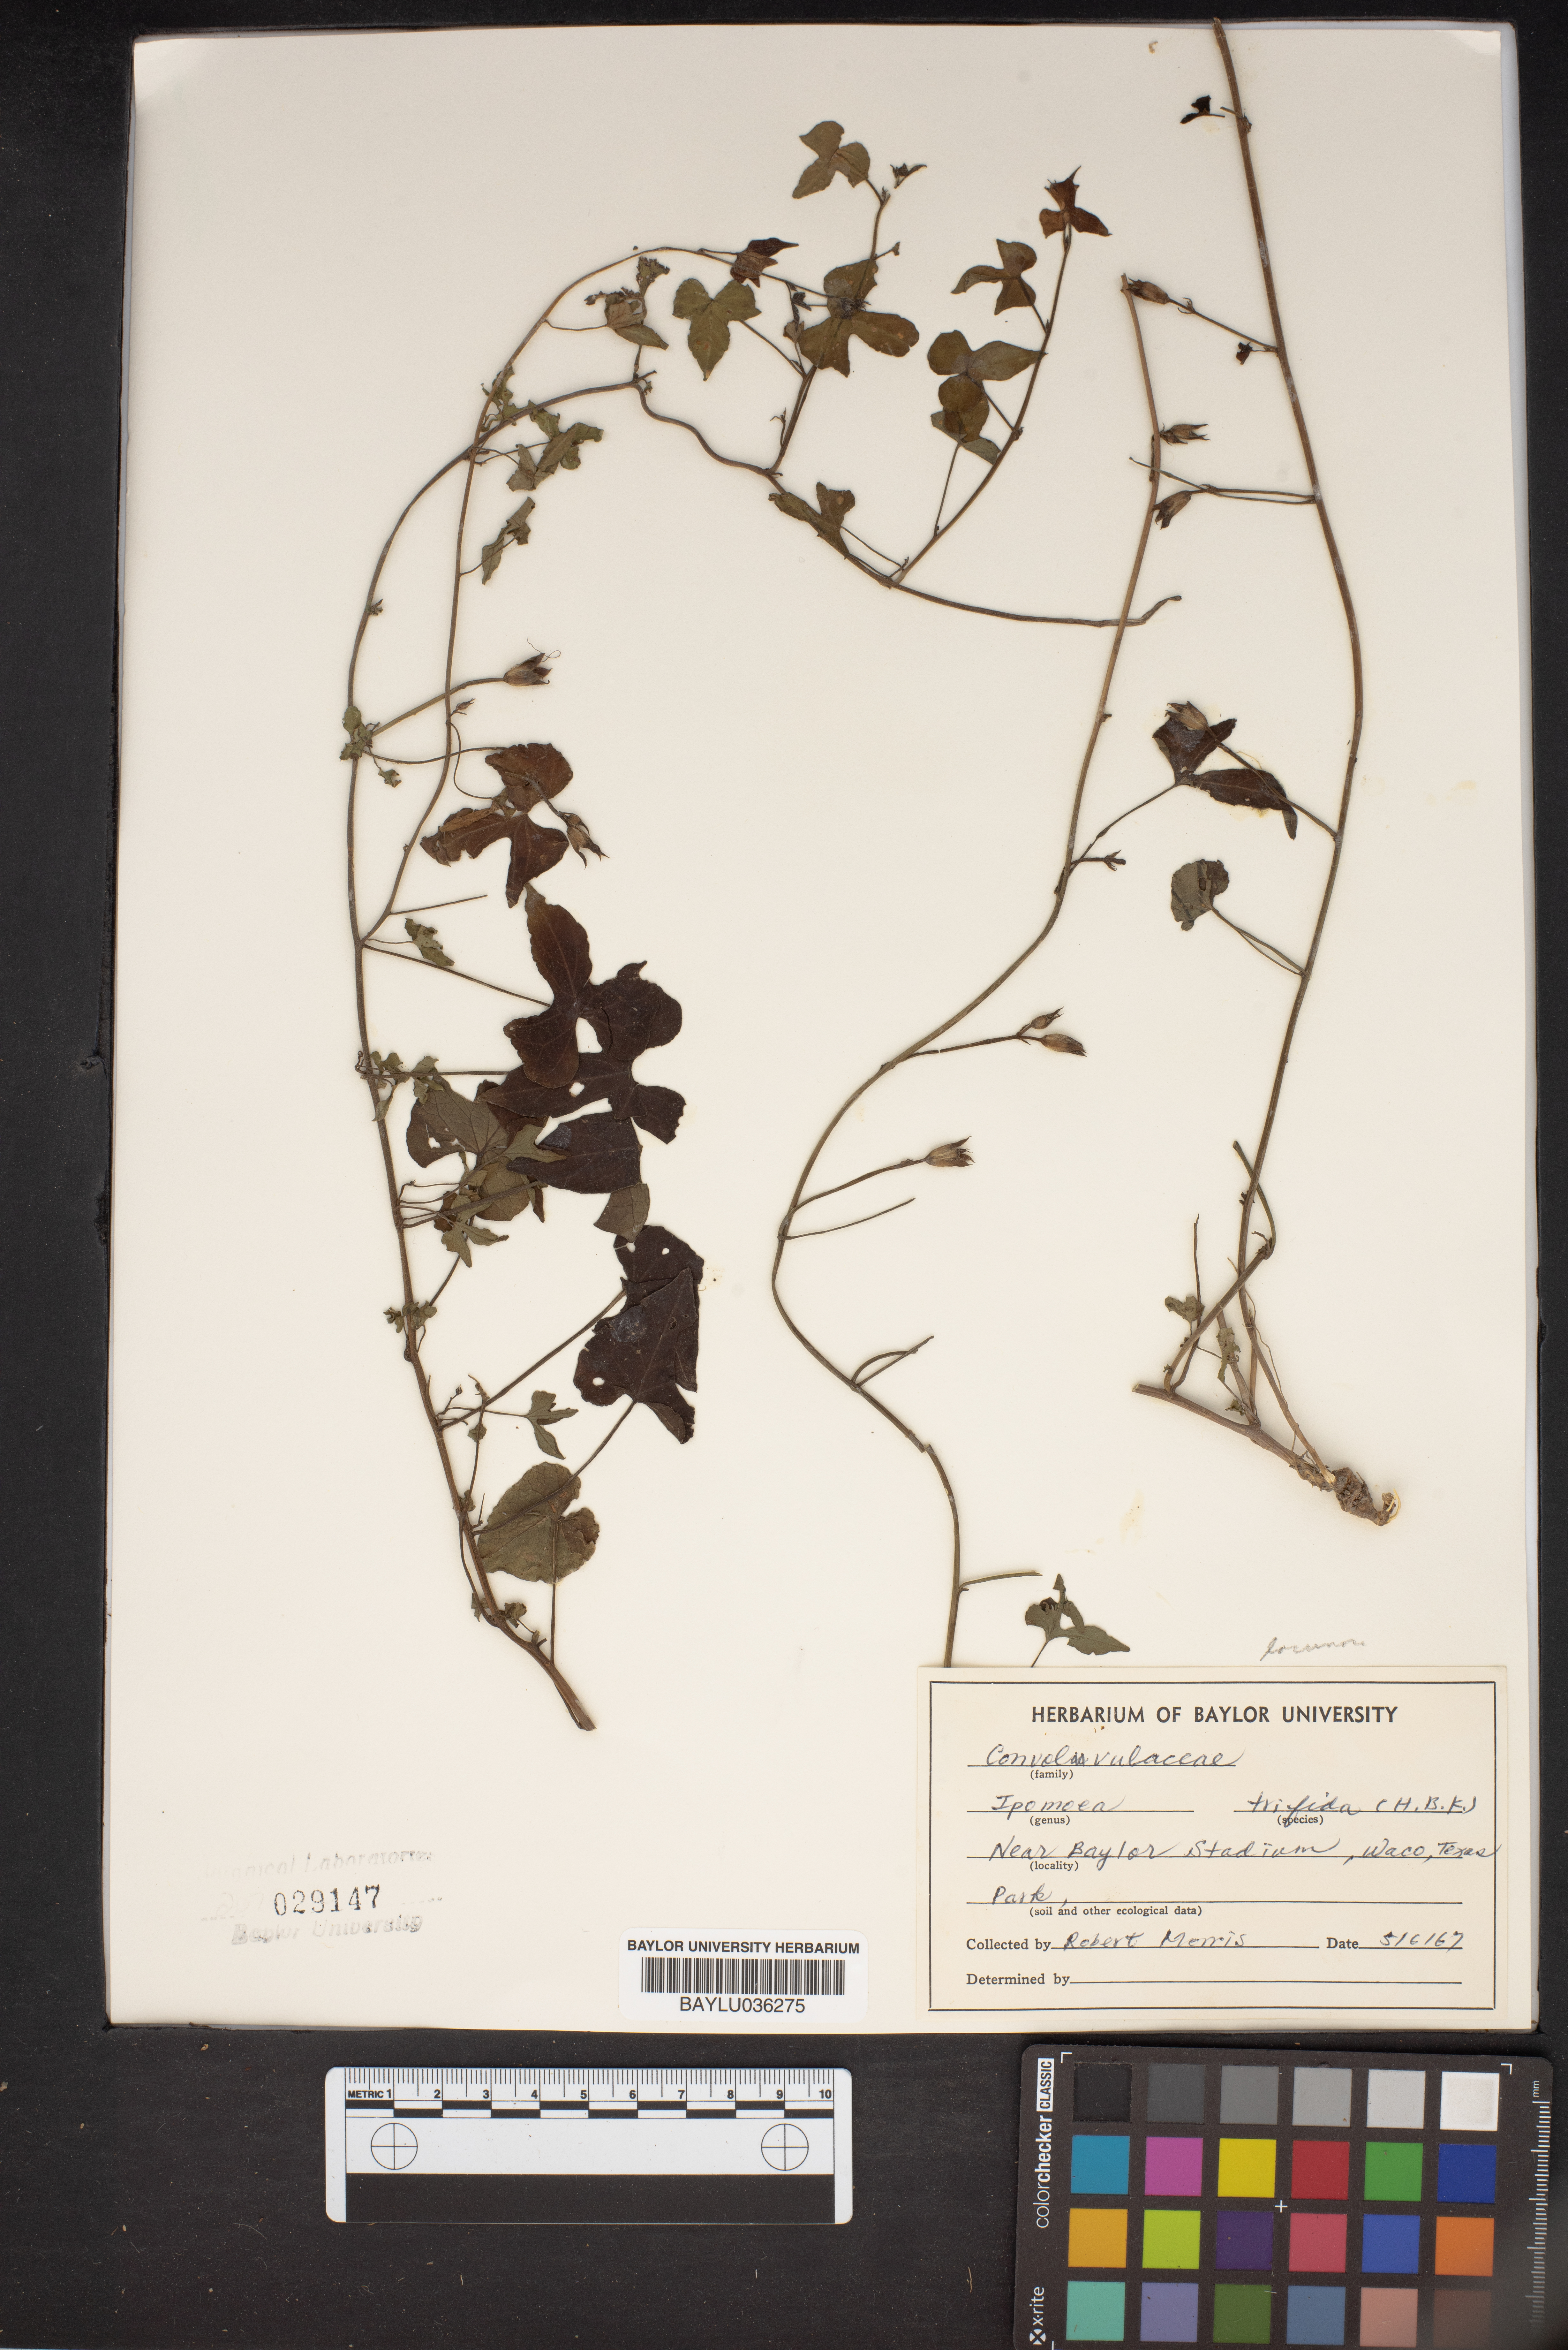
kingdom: Plantae
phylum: Tracheophyta
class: Magnoliopsida
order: Solanales
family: Convolvulaceae
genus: Ipomoea
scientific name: Ipomoea trifida
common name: Cotton morningglory
